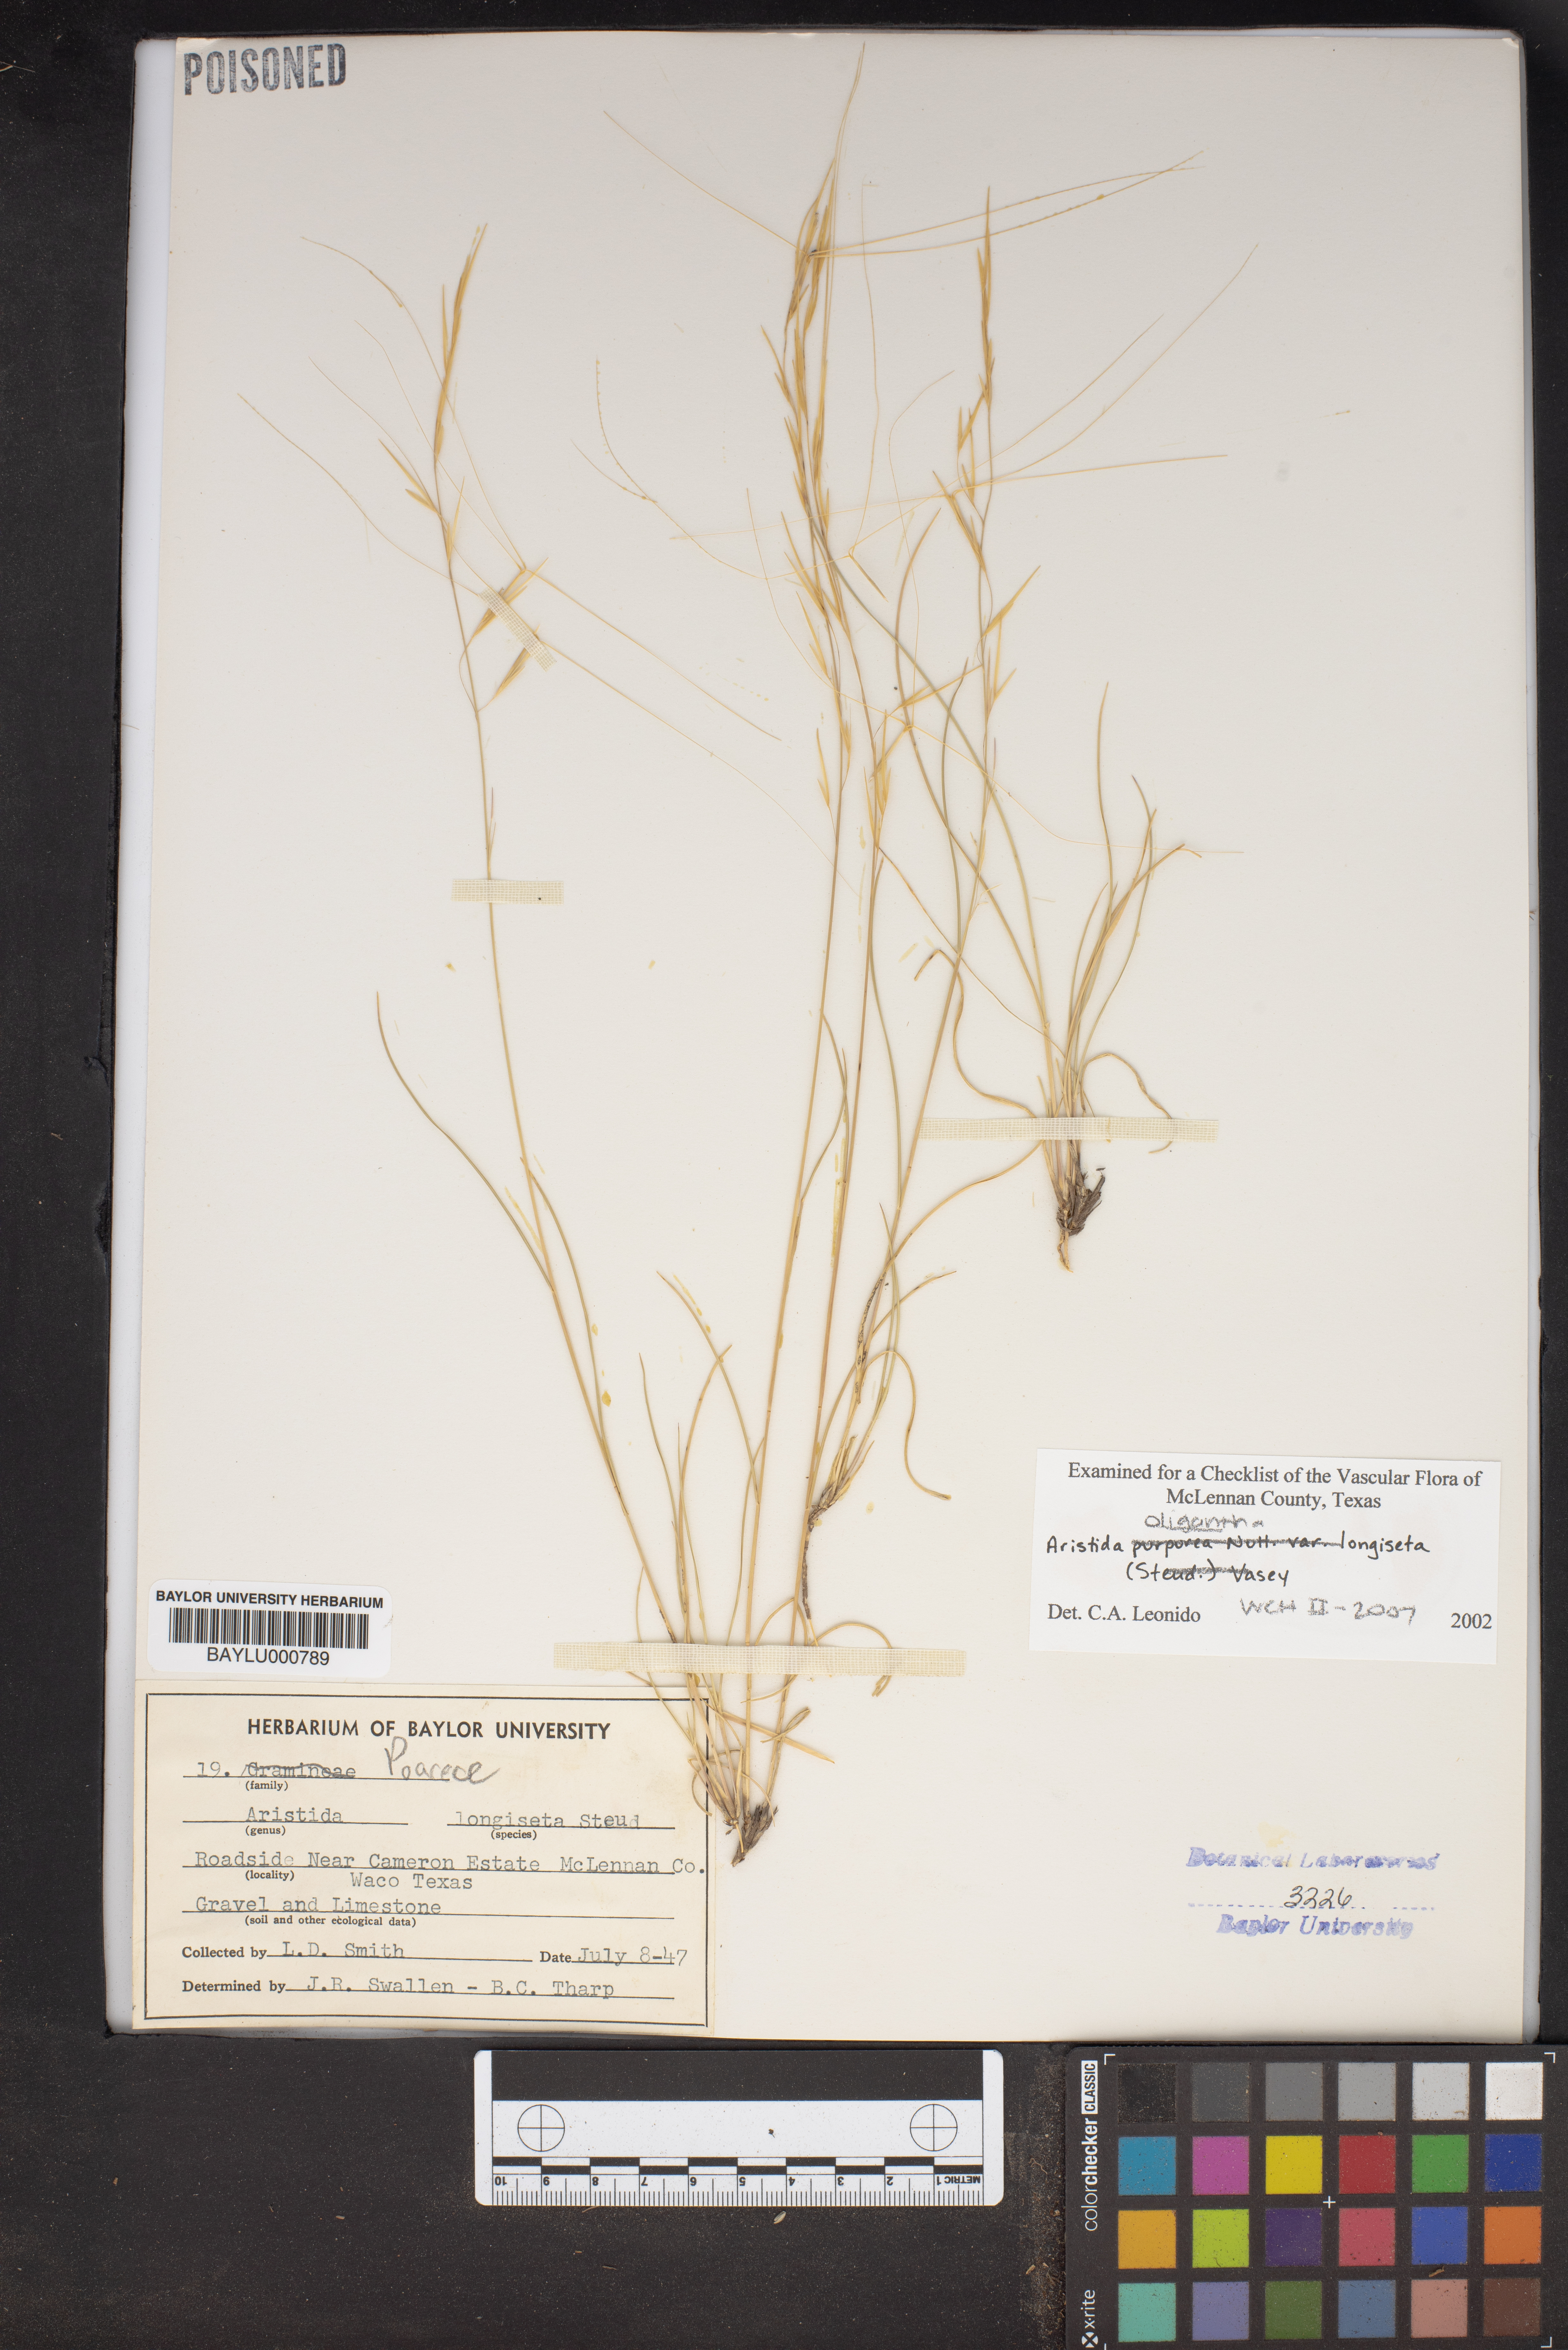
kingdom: Plantae
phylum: Tracheophyta
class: Liliopsida
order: Poales
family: Poaceae
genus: Aristida
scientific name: Aristida longiseta
